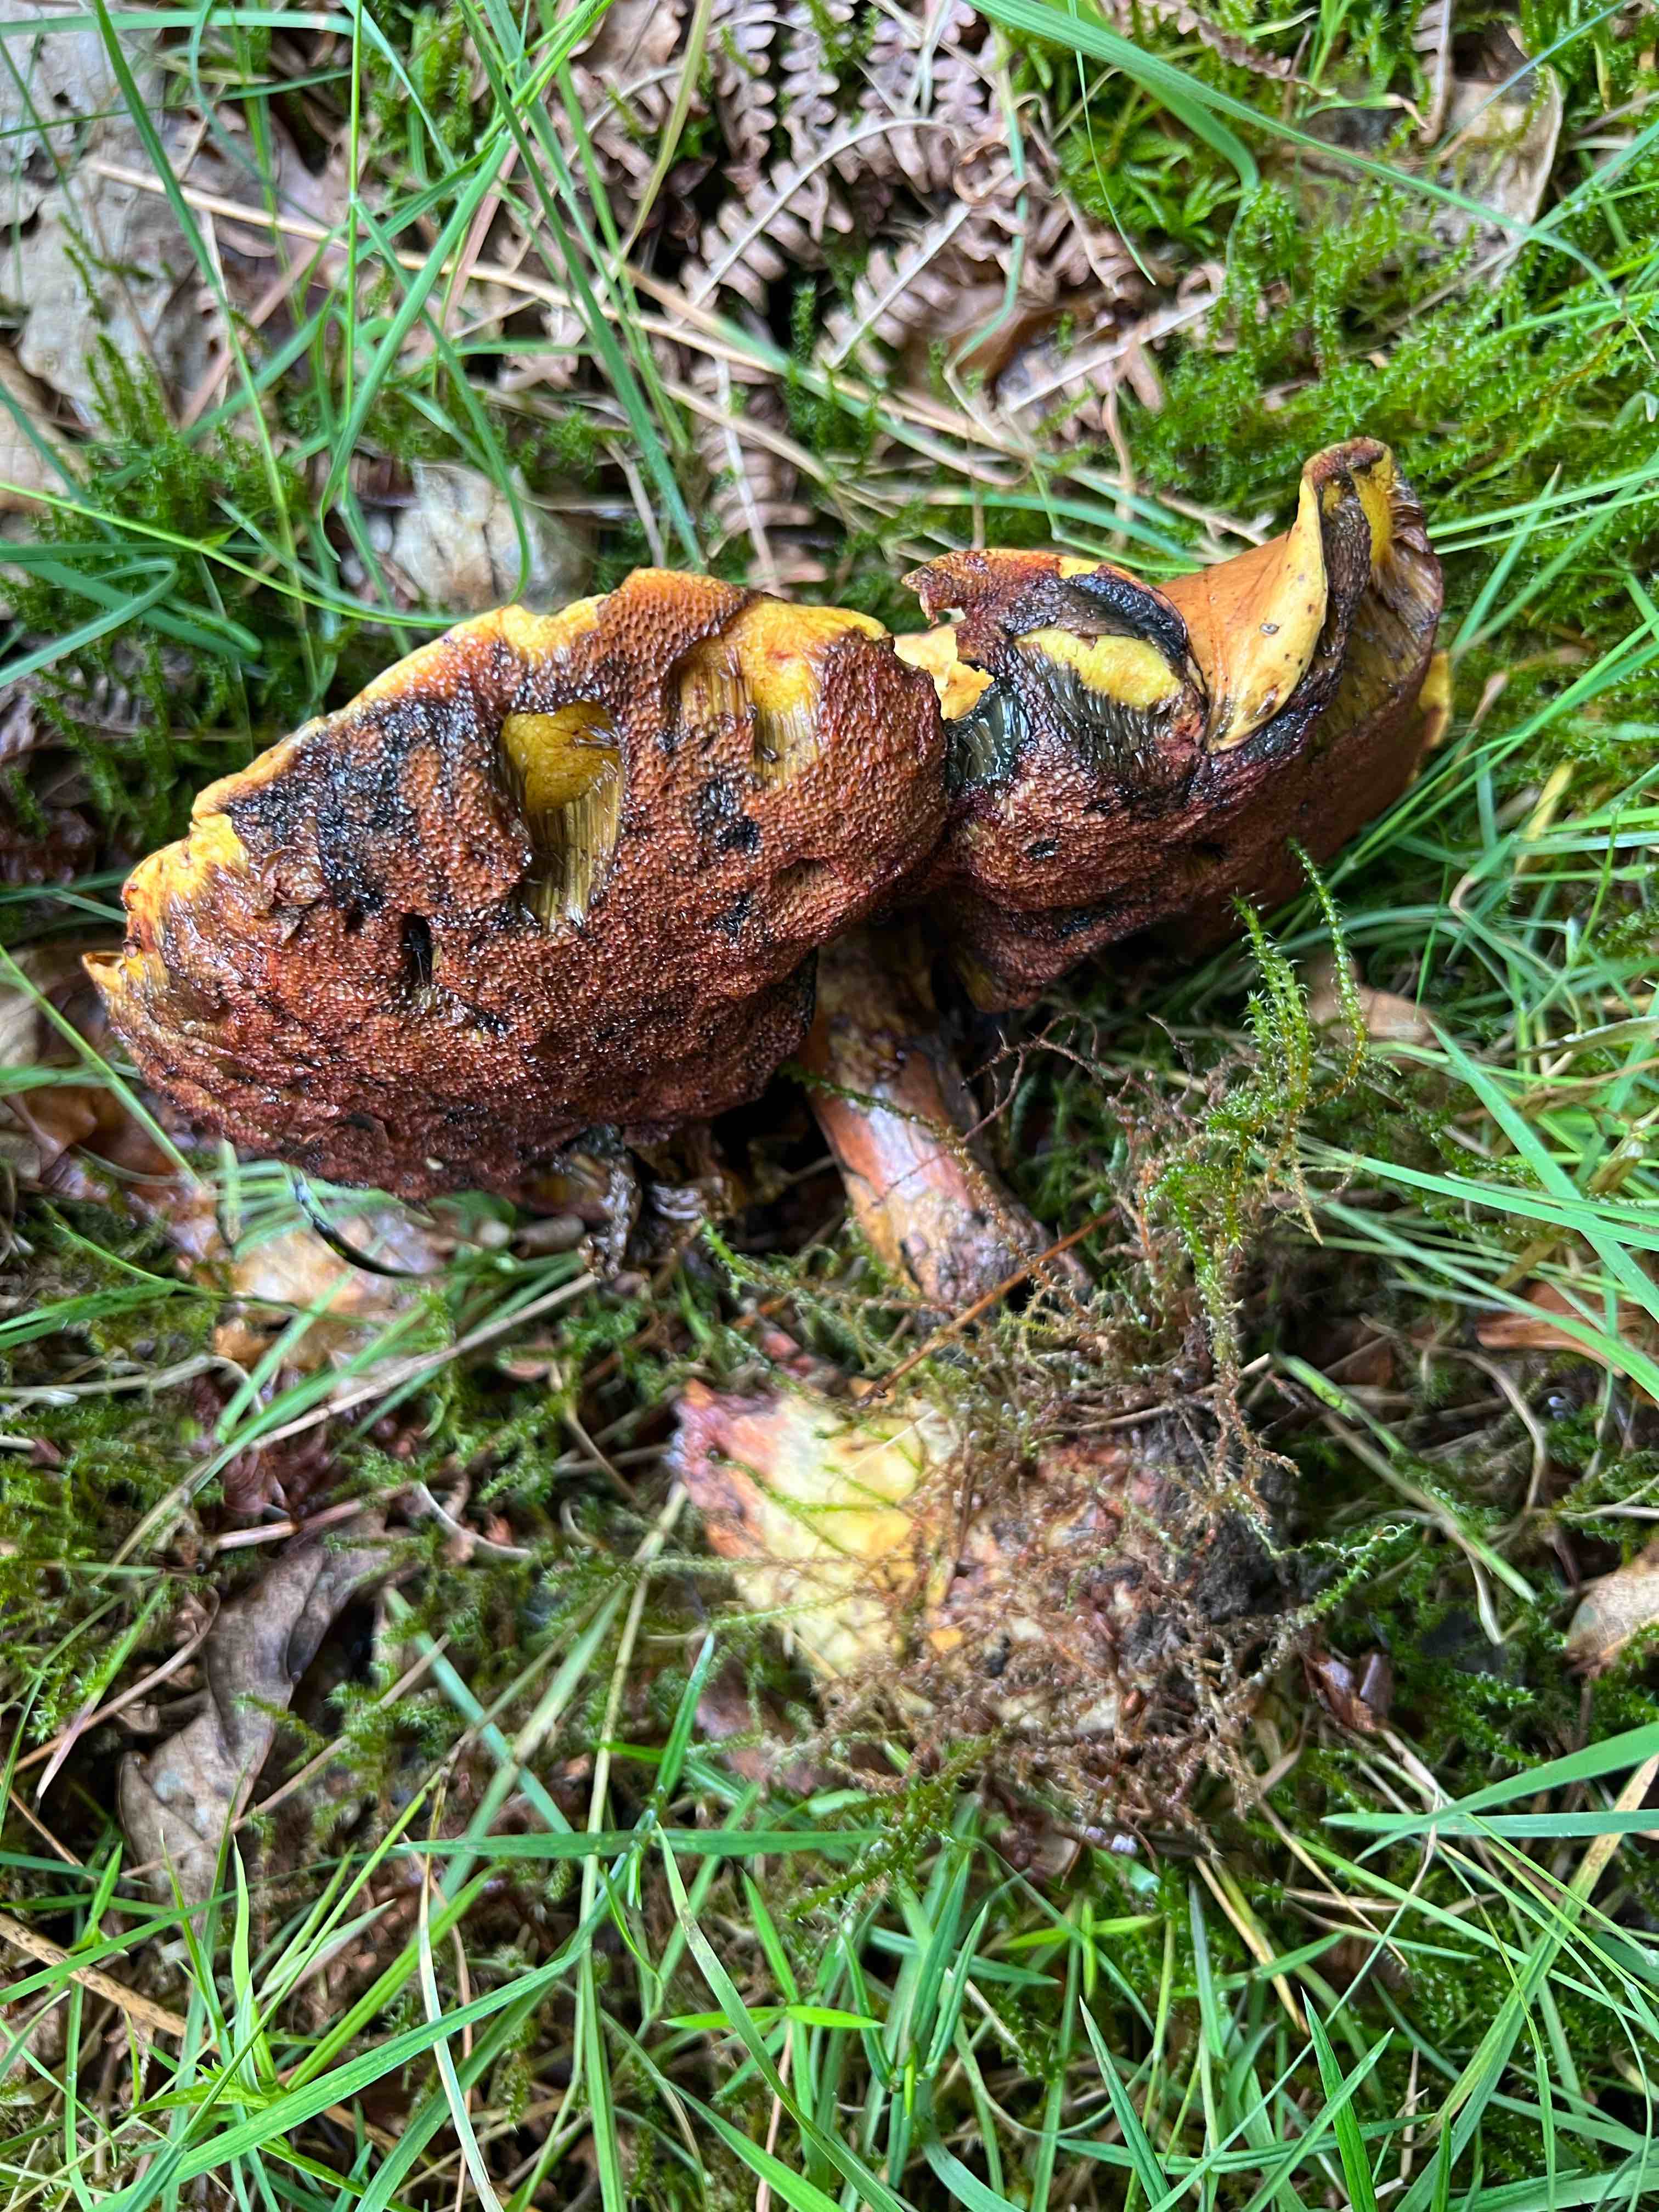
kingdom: Fungi
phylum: Basidiomycota
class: Agaricomycetes
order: Boletales
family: Boletaceae
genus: Neoboletus
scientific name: Neoboletus erythropus
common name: punktstokket indigorørhat
